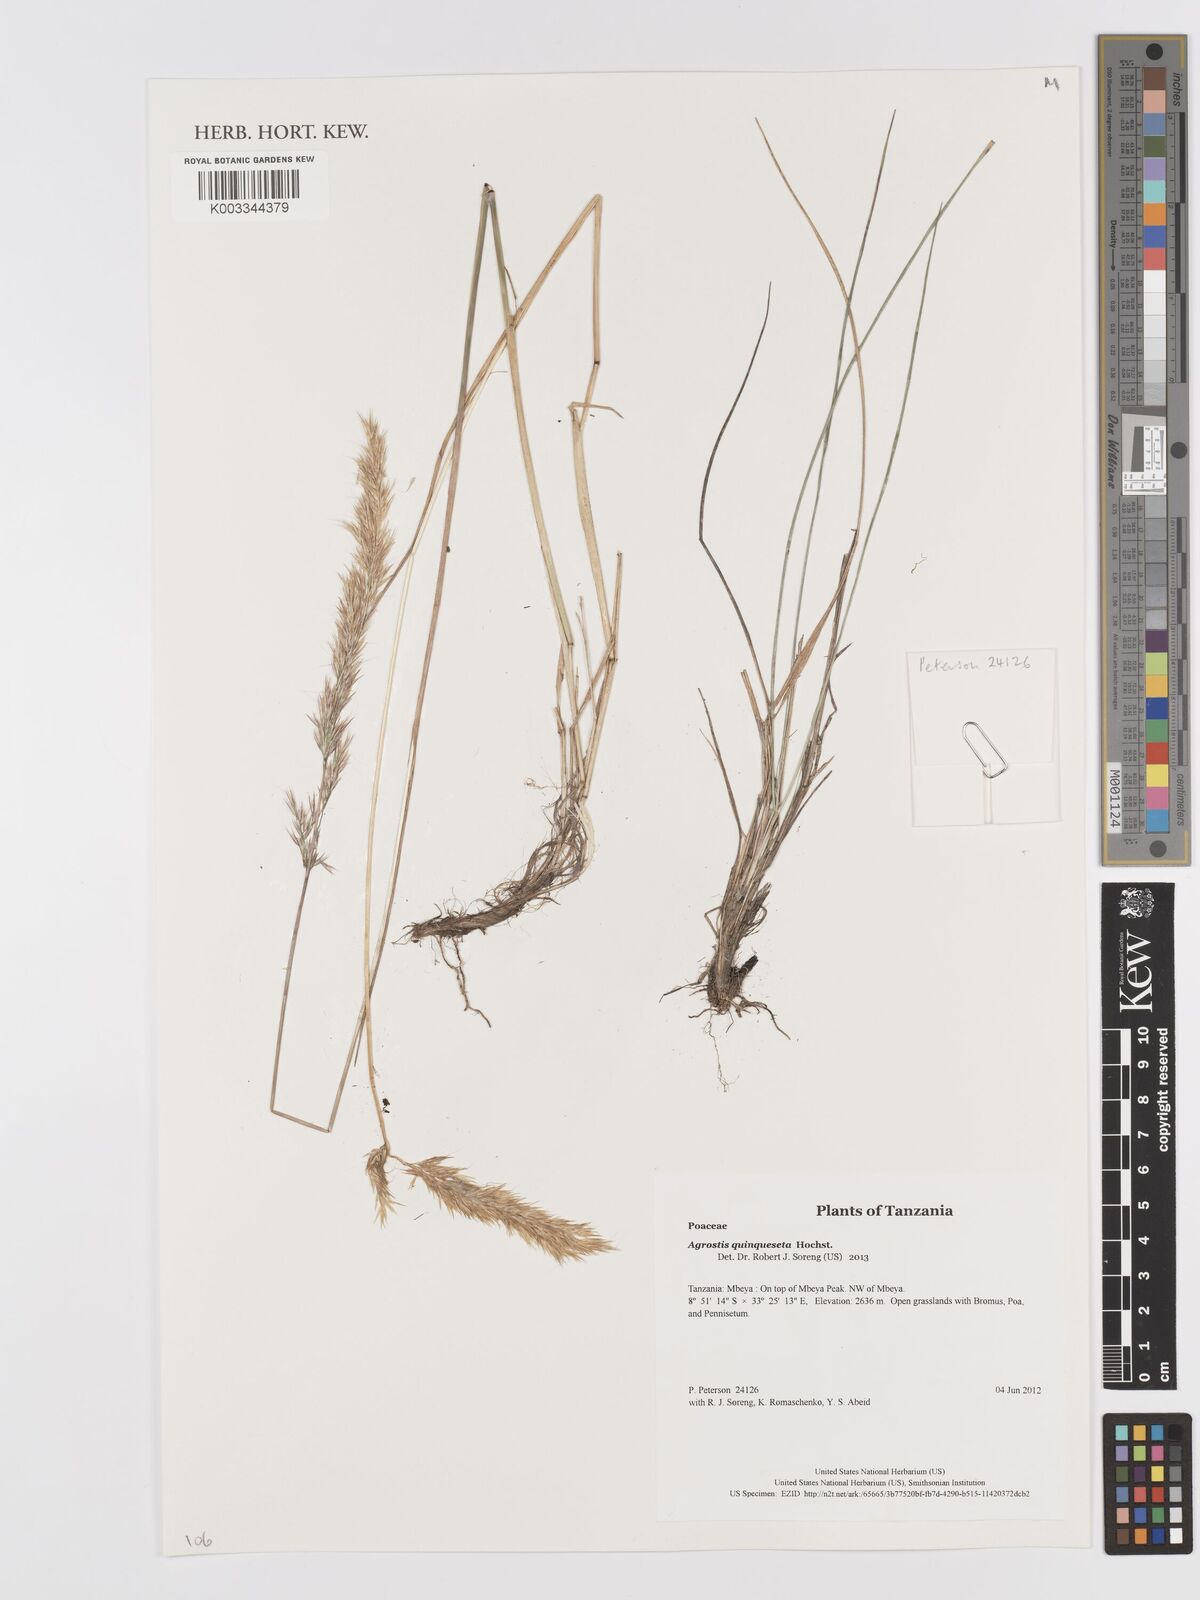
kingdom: Plantae
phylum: Tracheophyta
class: Liliopsida
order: Poales
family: Poaceae
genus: Agrostis
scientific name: Agrostis quinqueseta
